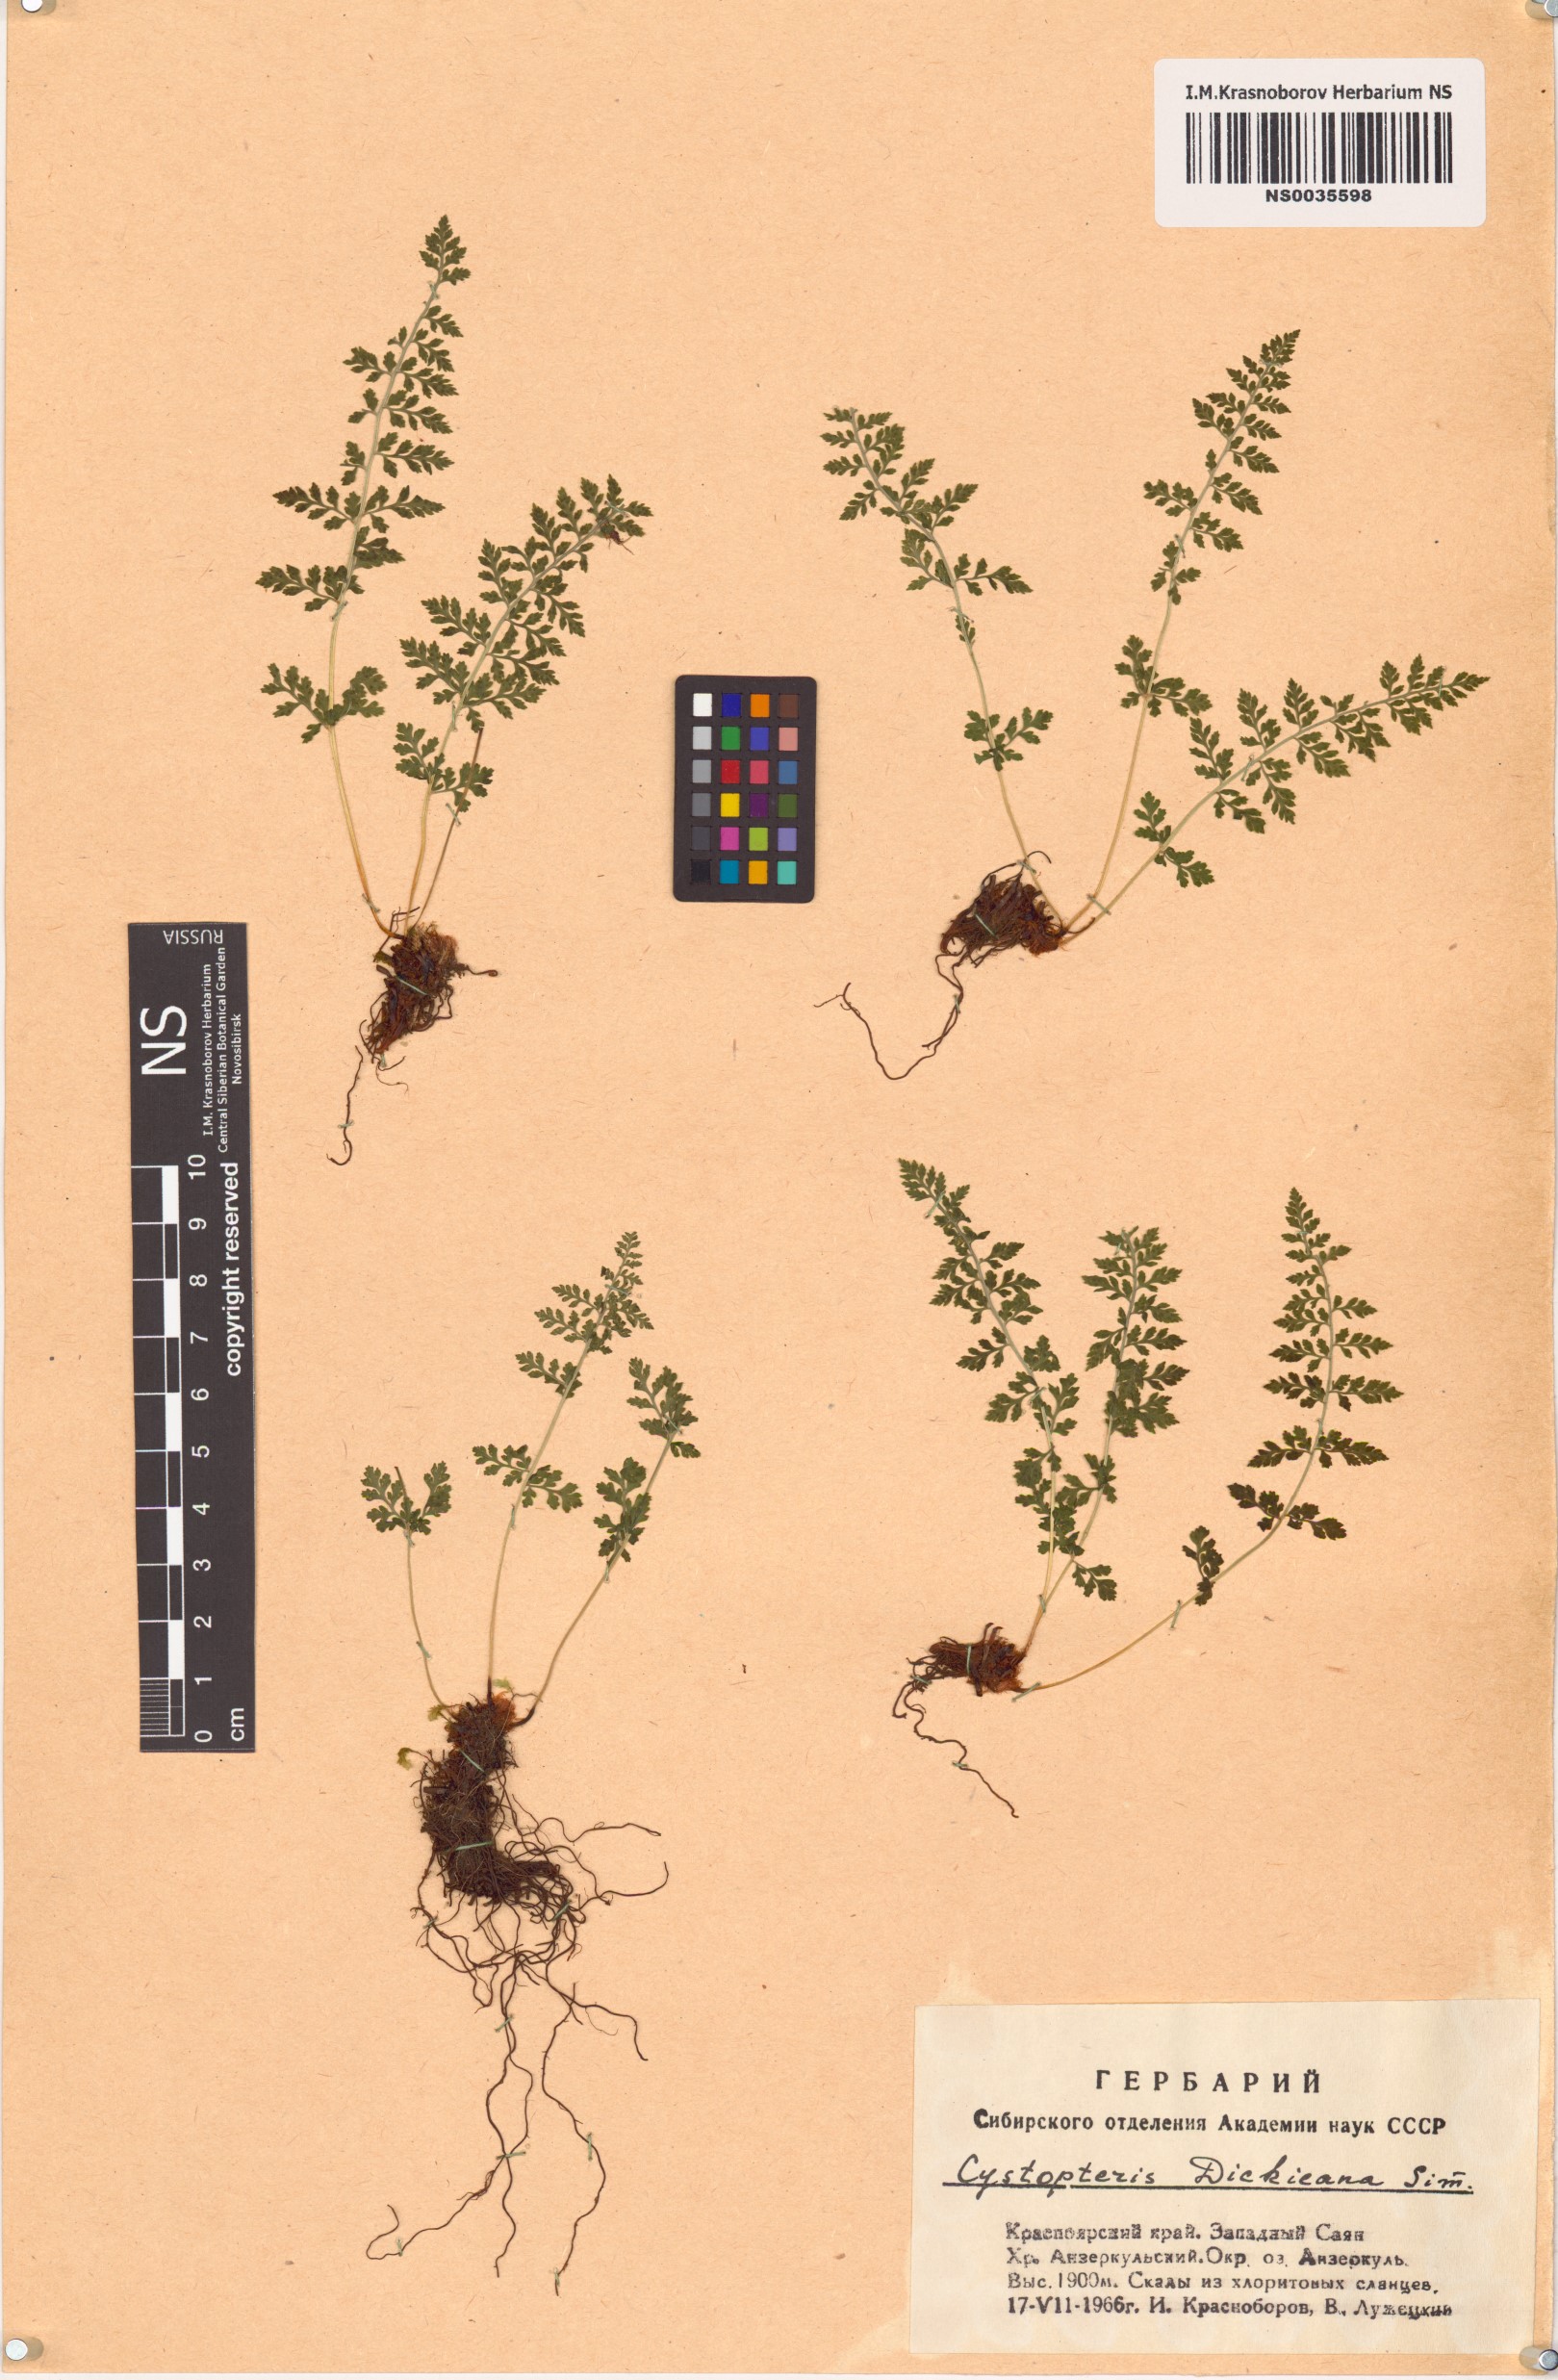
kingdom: Plantae
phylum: Tracheophyta
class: Polypodiopsida
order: Polypodiales
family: Cystopteridaceae
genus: Cystopteris
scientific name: Cystopteris dickieana
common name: Dickie's bladder-fern
